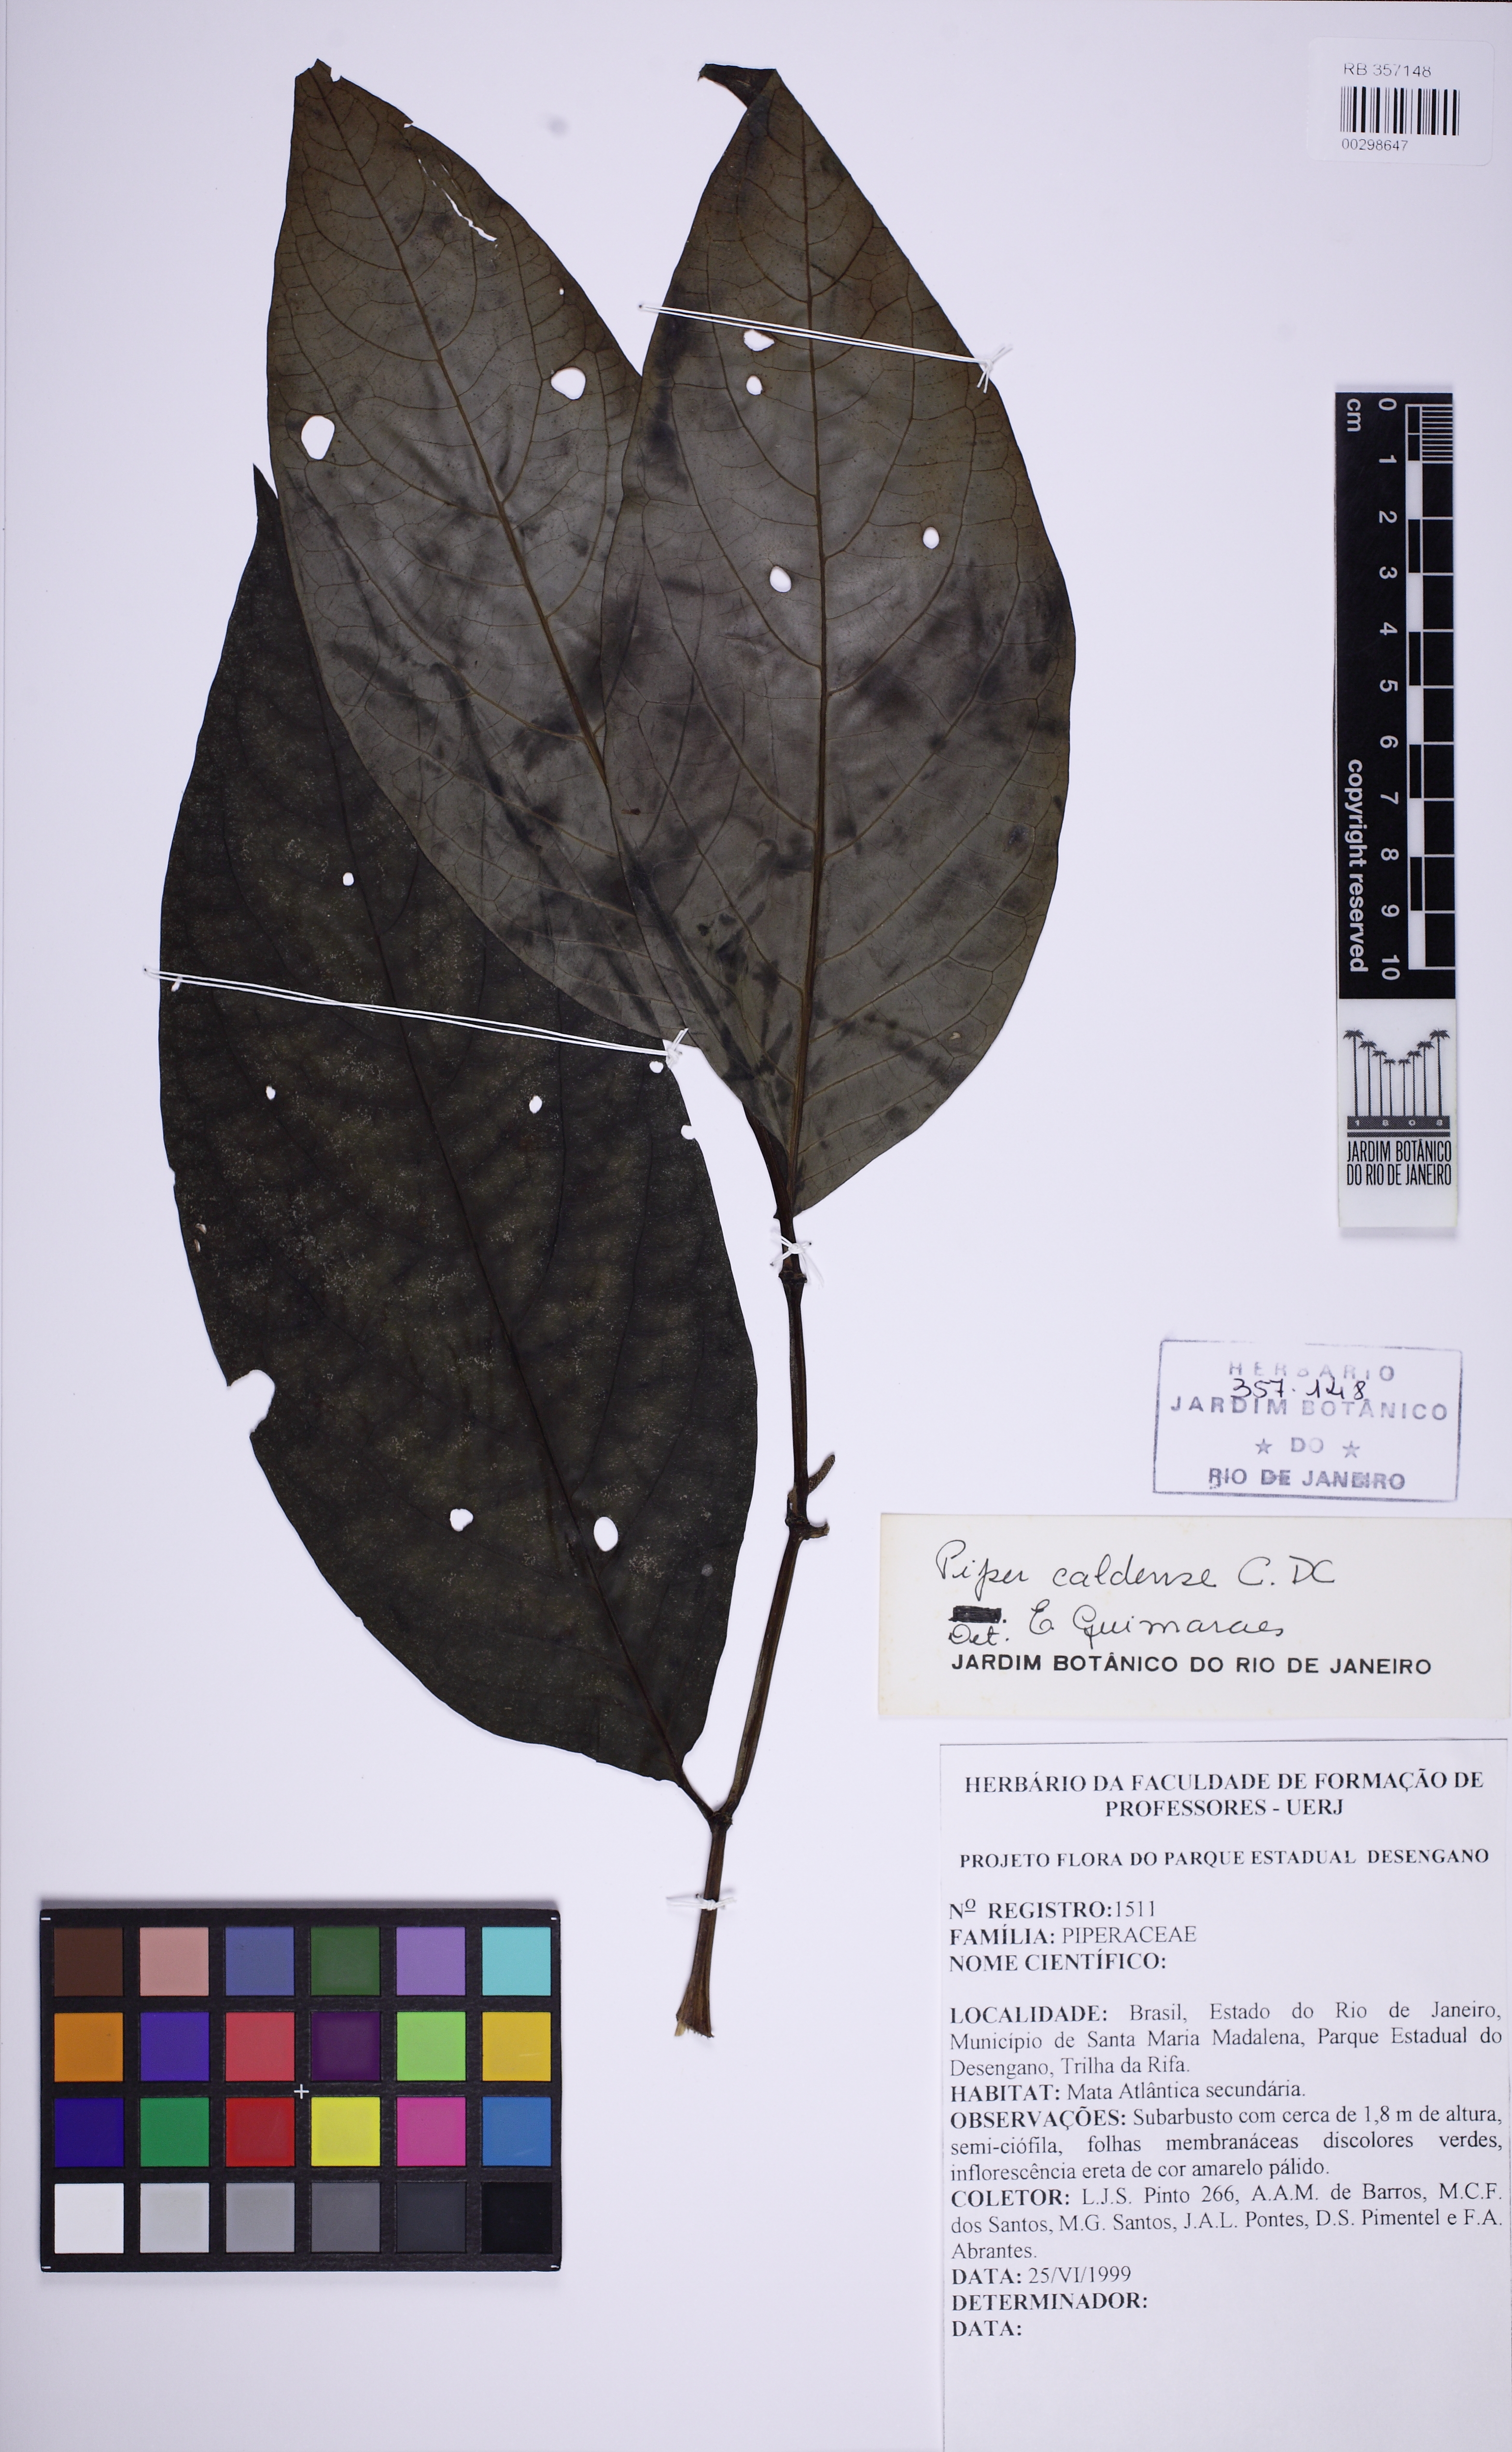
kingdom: Plantae
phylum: Tracheophyta
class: Magnoliopsida
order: Piperales
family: Piperaceae
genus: Piper
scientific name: Piper caldense
